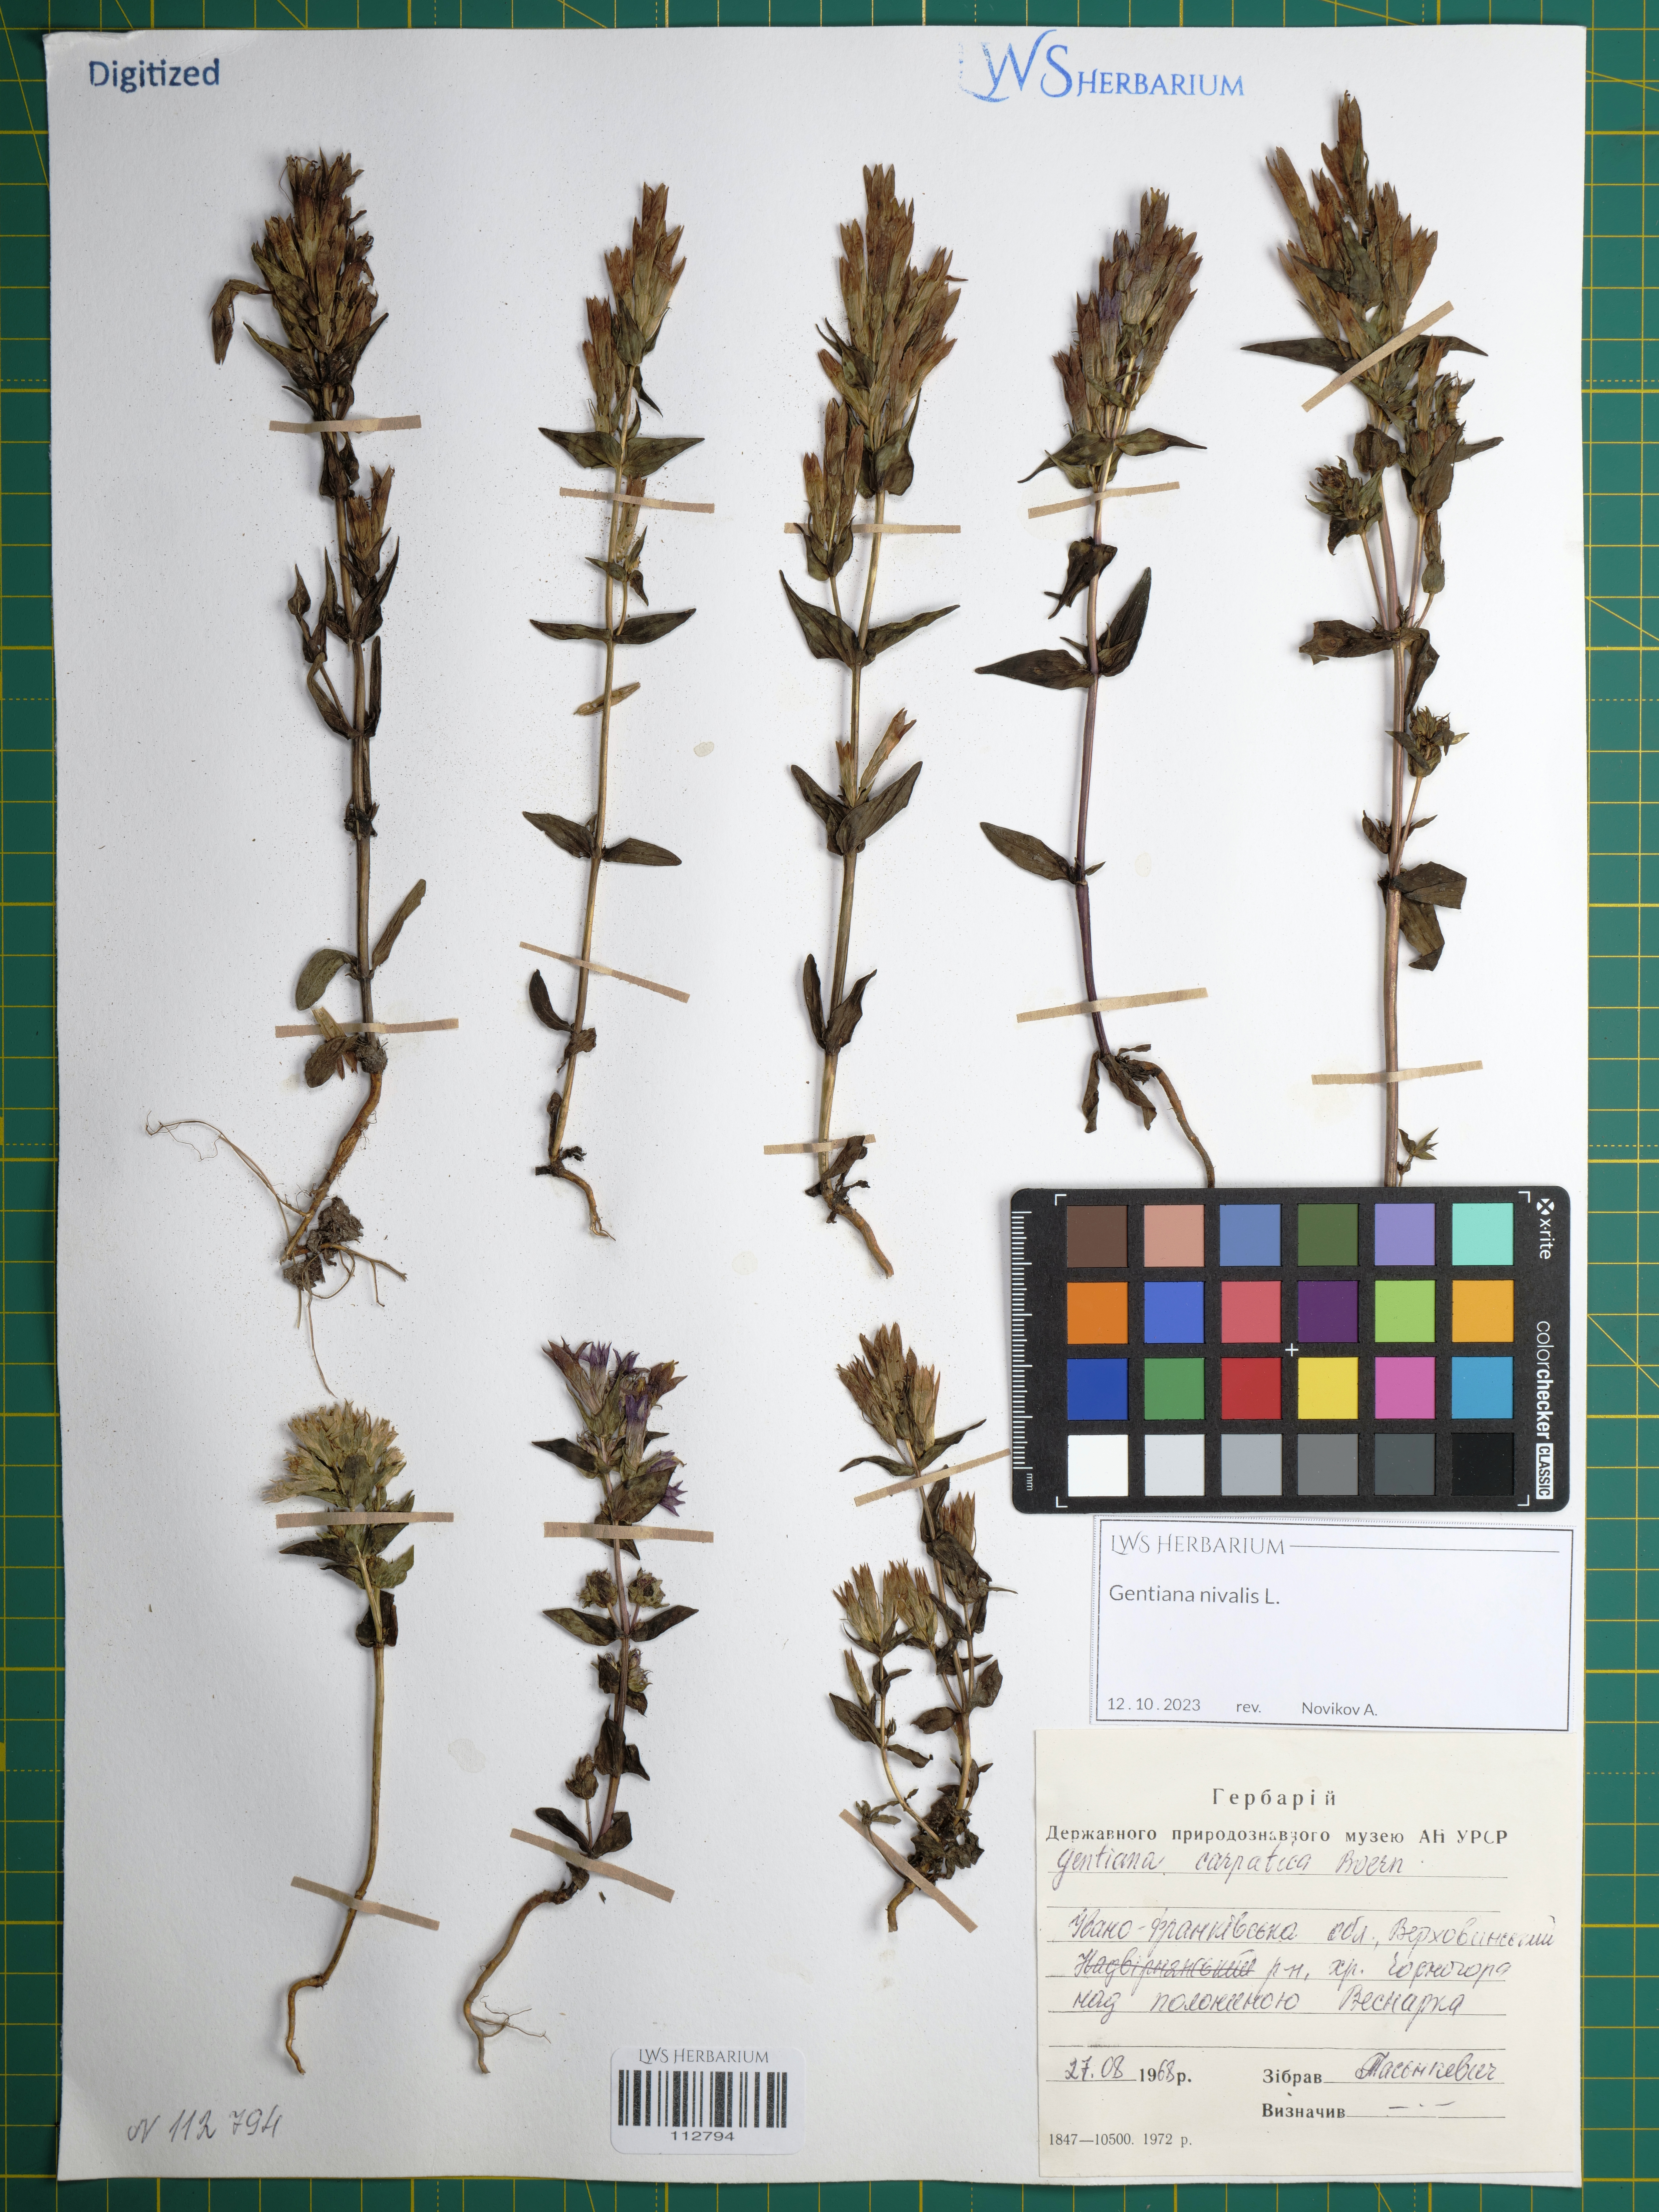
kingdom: Plantae
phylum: Tracheophyta
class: Magnoliopsida
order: Gentianales
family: Gentianaceae
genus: Gentiana
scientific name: Gentiana nivalis
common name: Alpine gentian
